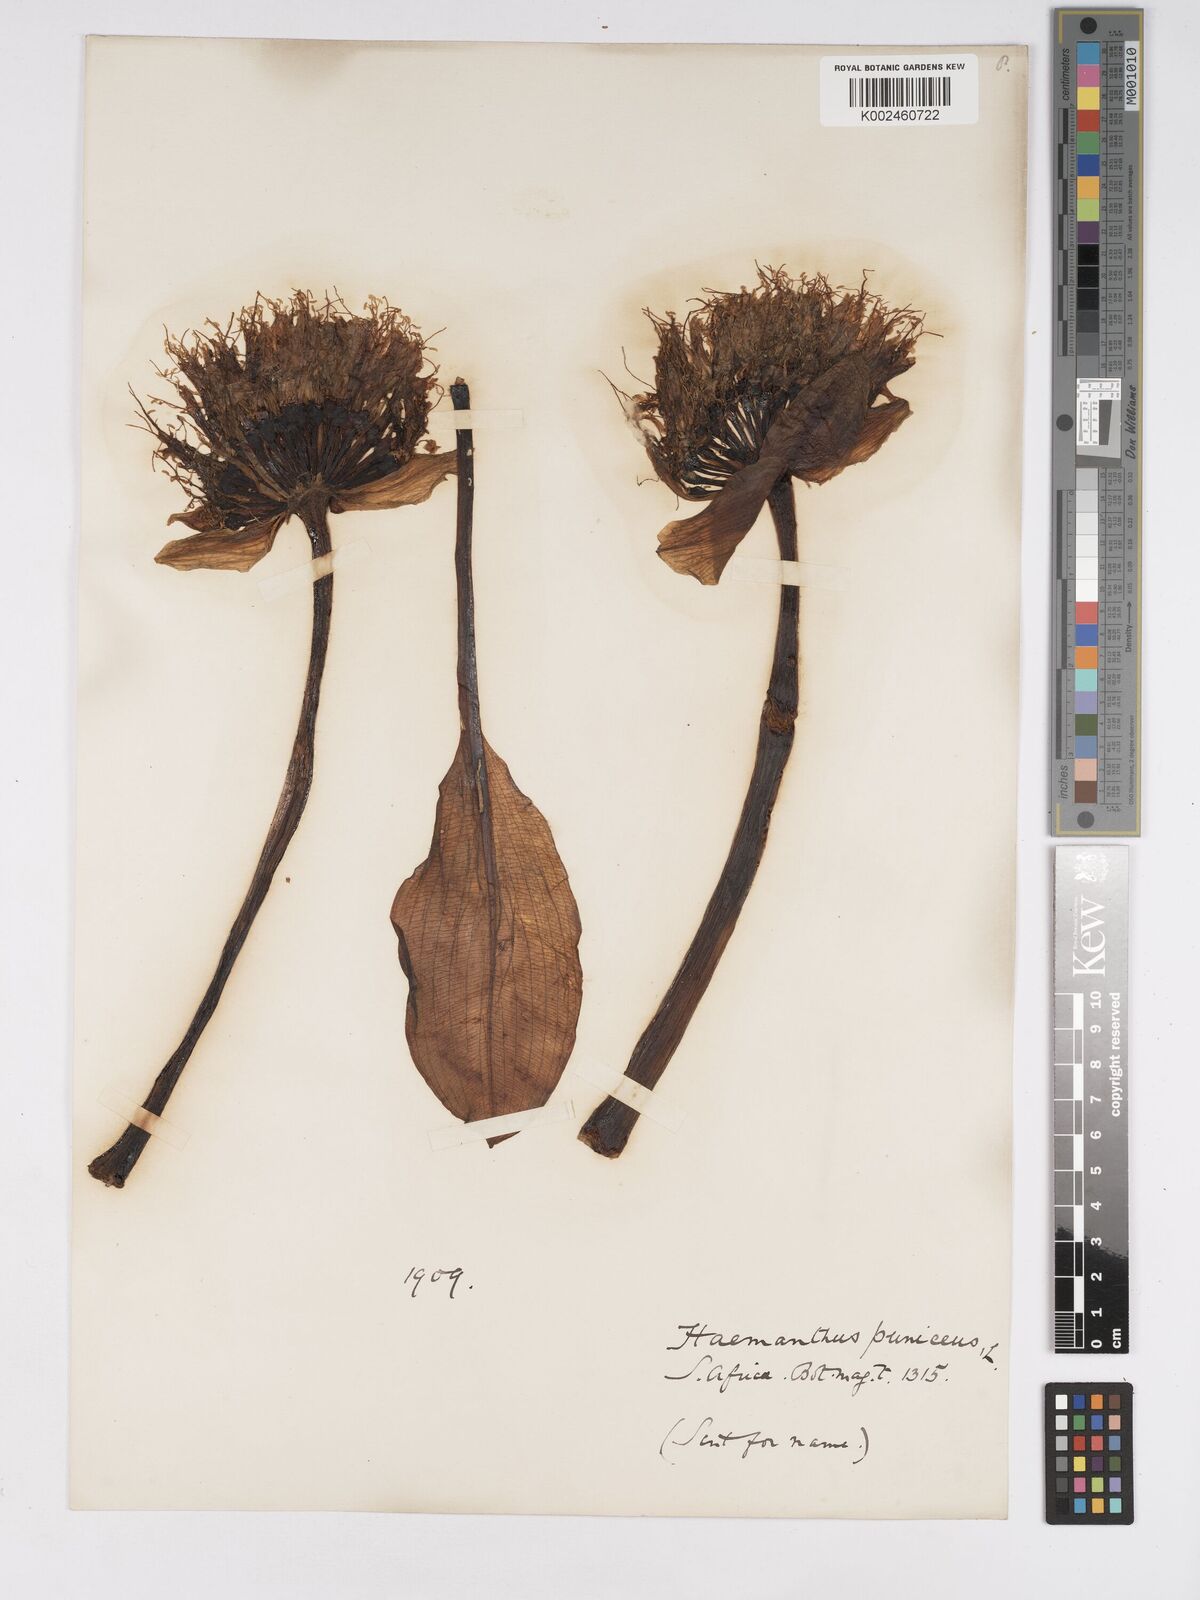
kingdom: Plantae
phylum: Tracheophyta
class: Liliopsida
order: Asparagales
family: Amaryllidaceae
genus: Scadoxus
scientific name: Scadoxus puniceus
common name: Royal-paintbrush
